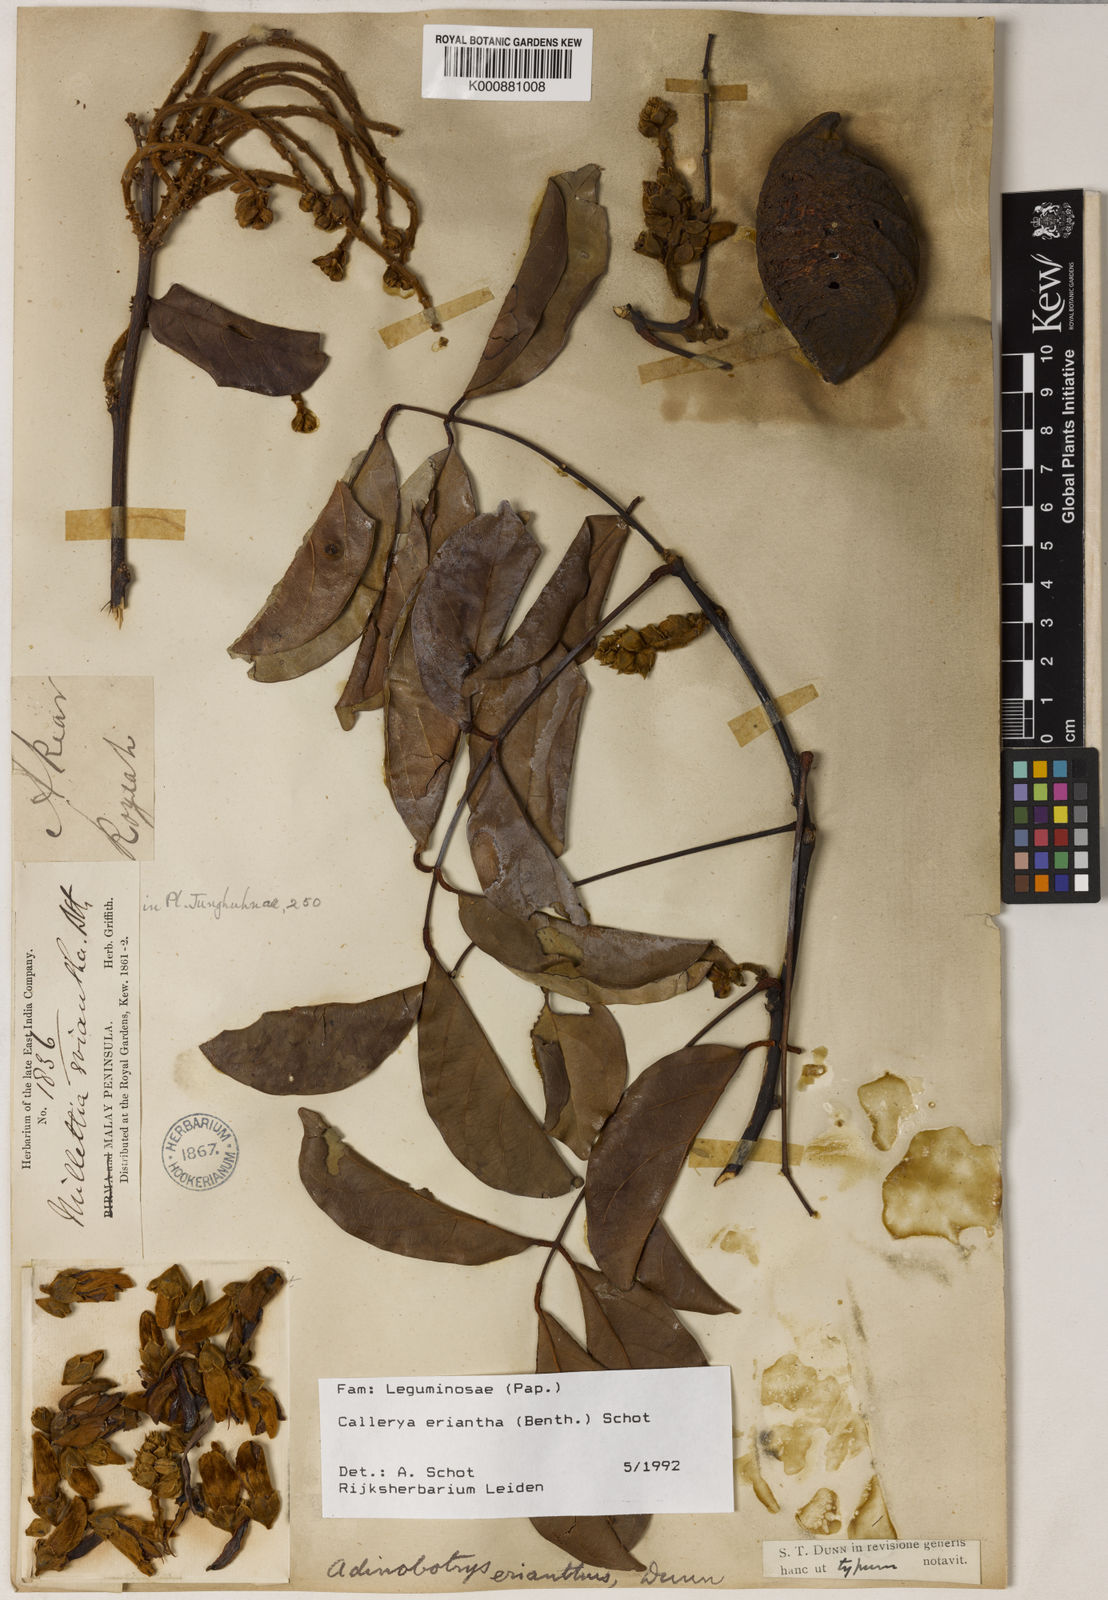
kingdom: Plantae
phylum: Tracheophyta
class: Magnoliopsida
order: Fabales
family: Fabaceae
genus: Whitfordiodendron
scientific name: Whitfordiodendron erianthum
